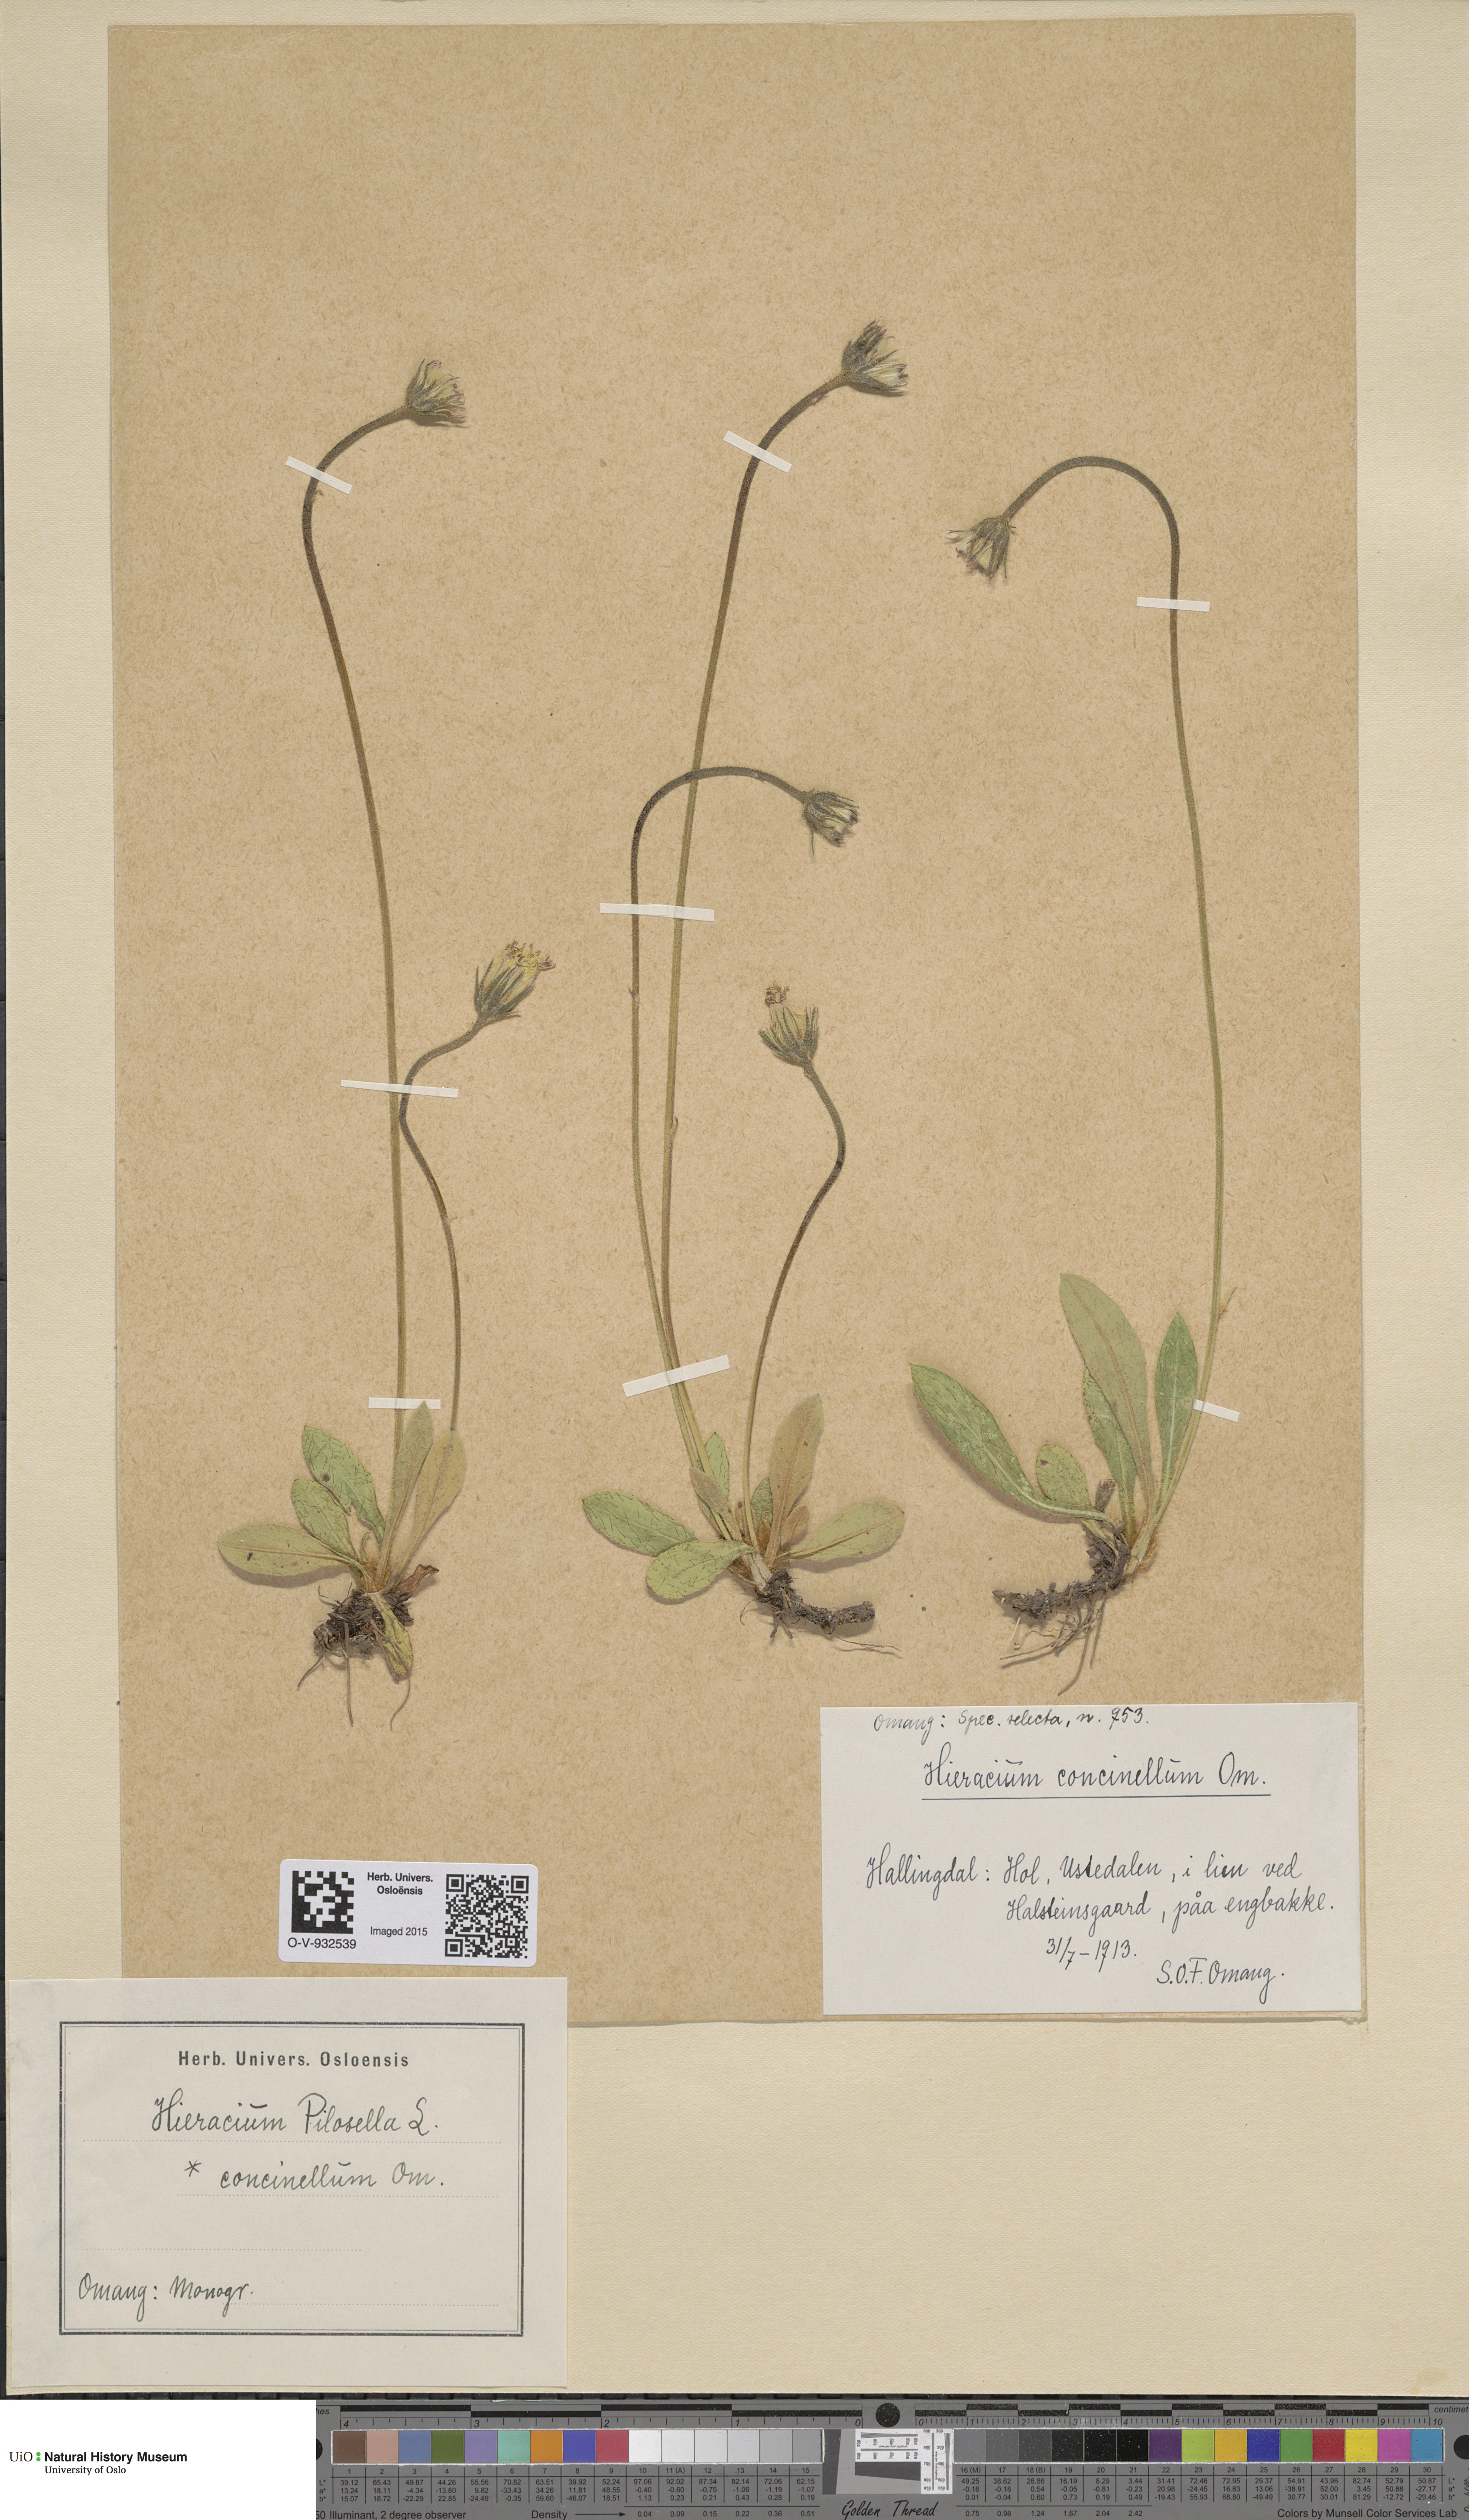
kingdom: Plantae
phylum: Tracheophyta
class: Magnoliopsida
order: Asterales
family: Asteraceae
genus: Pilosella
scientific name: Pilosella officinarum
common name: Mouse-ear hawkweed
